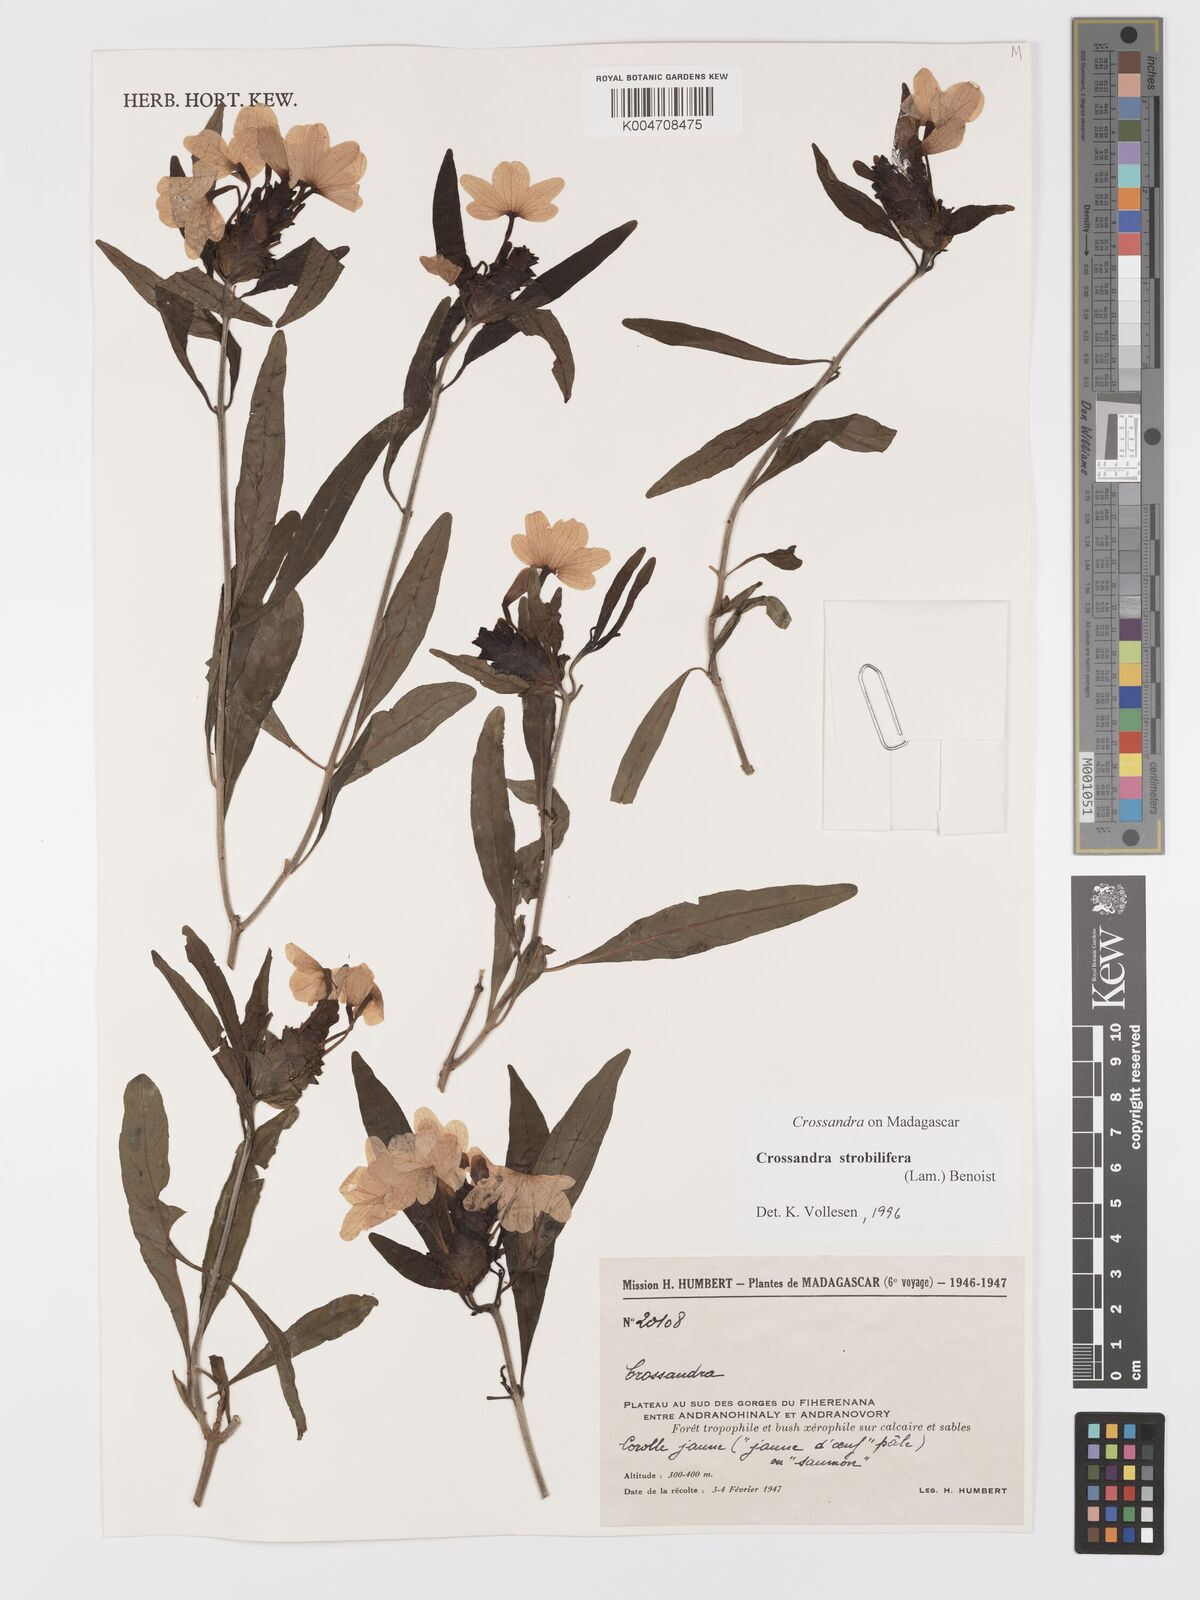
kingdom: Plantae
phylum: Tracheophyta
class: Magnoliopsida
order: Lamiales
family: Acanthaceae
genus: Crossandra
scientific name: Crossandra strobilifera
